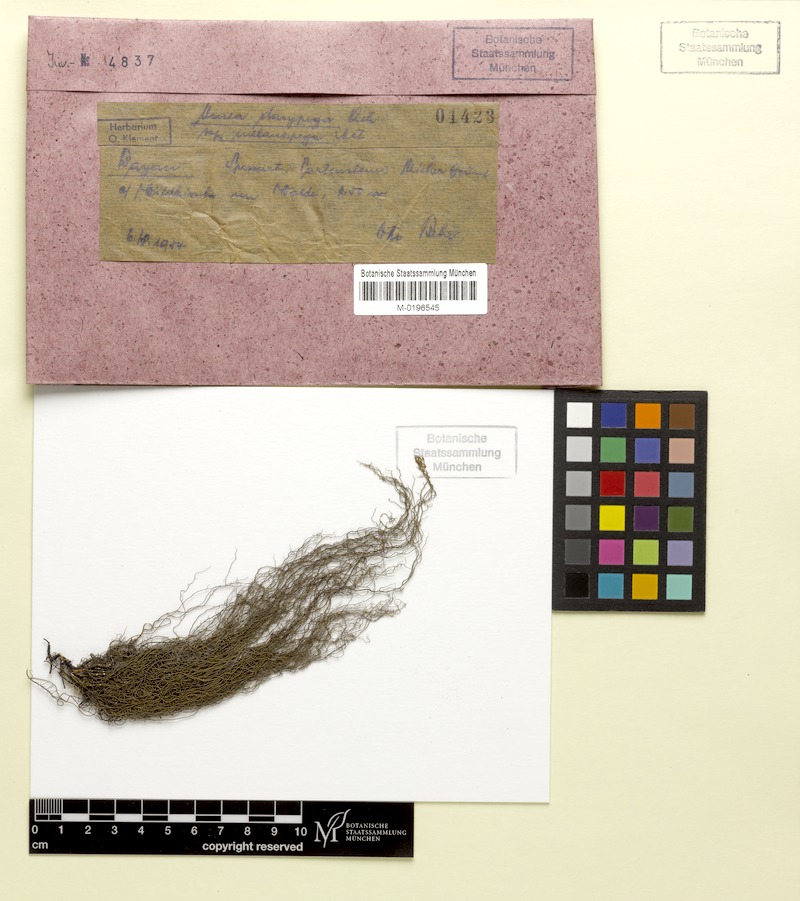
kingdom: Fungi
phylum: Ascomycota
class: Lecanoromycetes
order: Lecanorales
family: Parmeliaceae
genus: Usnea
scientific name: Usnea dasopoga
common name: Fishbone beard lichen
